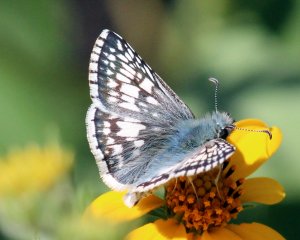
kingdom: Animalia
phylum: Arthropoda
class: Insecta
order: Lepidoptera
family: Hesperiidae
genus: Pyrgus
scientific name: Pyrgus communis
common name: Common Checkered-Skipper
